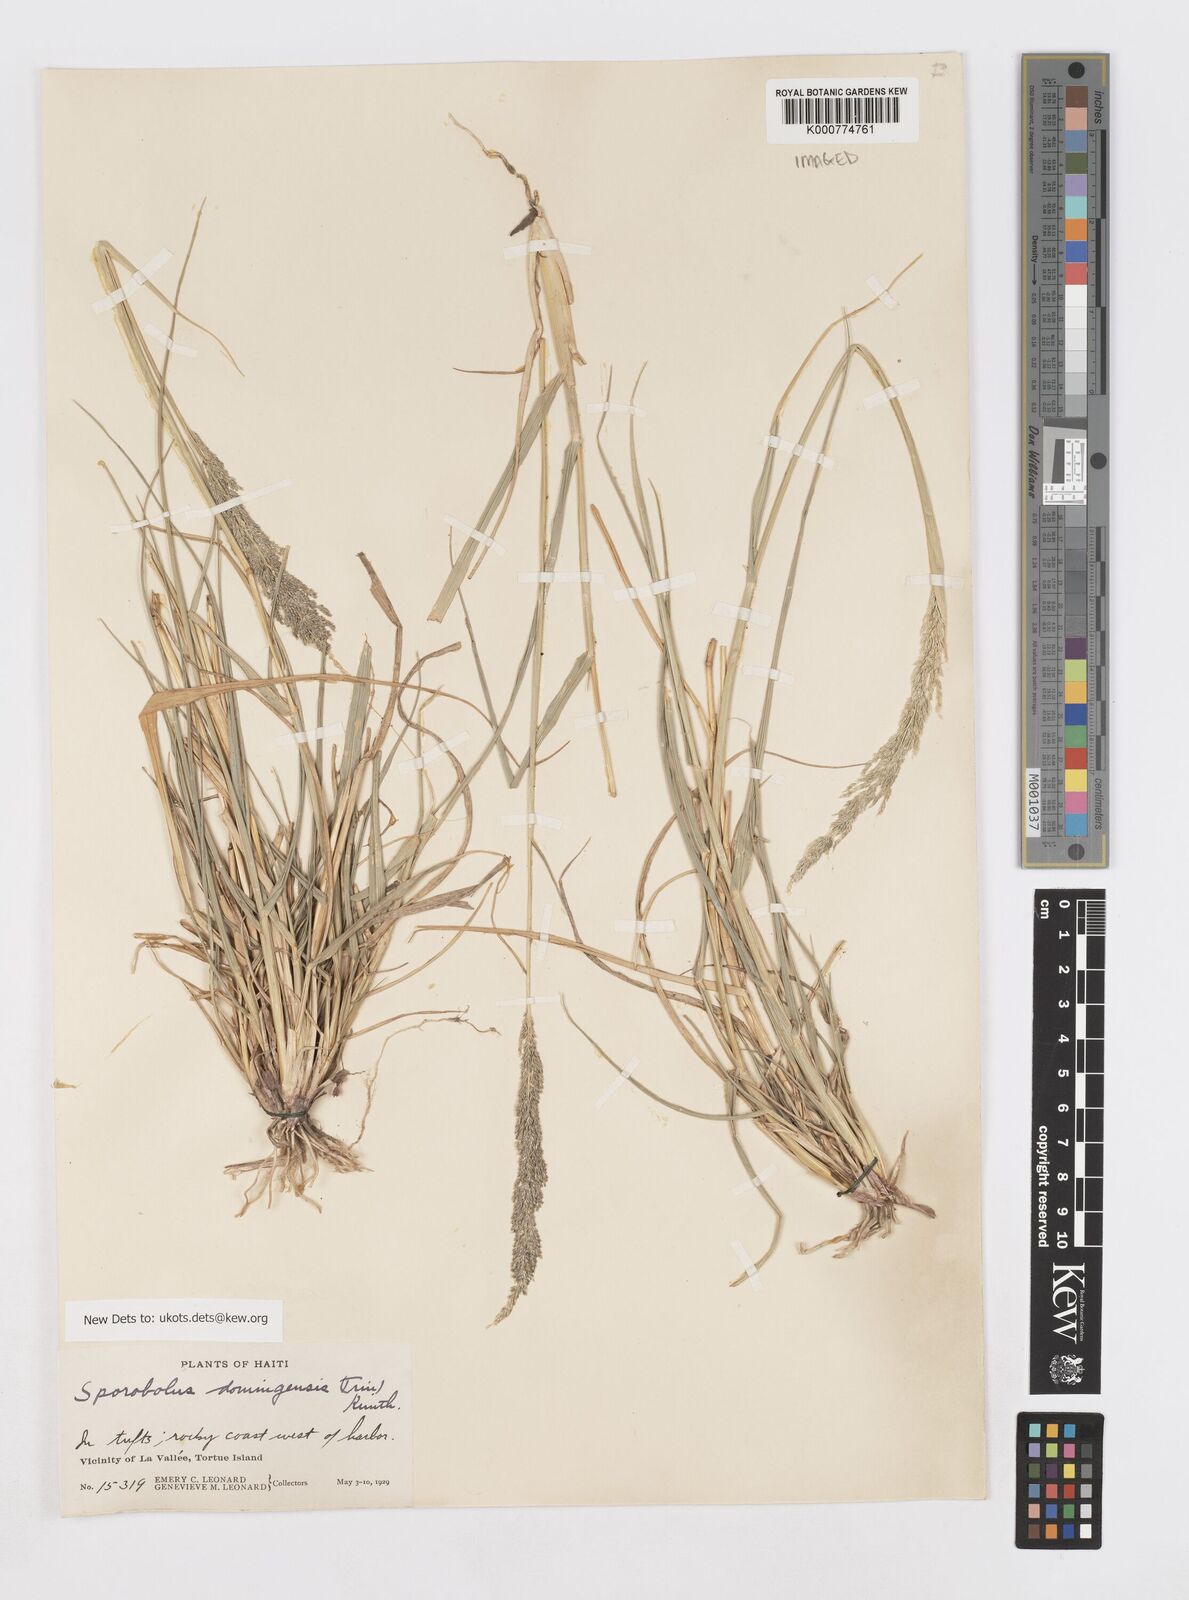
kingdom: Plantae
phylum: Tracheophyta
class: Liliopsida
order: Poales
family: Poaceae
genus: Sporobolus
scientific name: Sporobolus domingensis
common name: Coral dropseed
